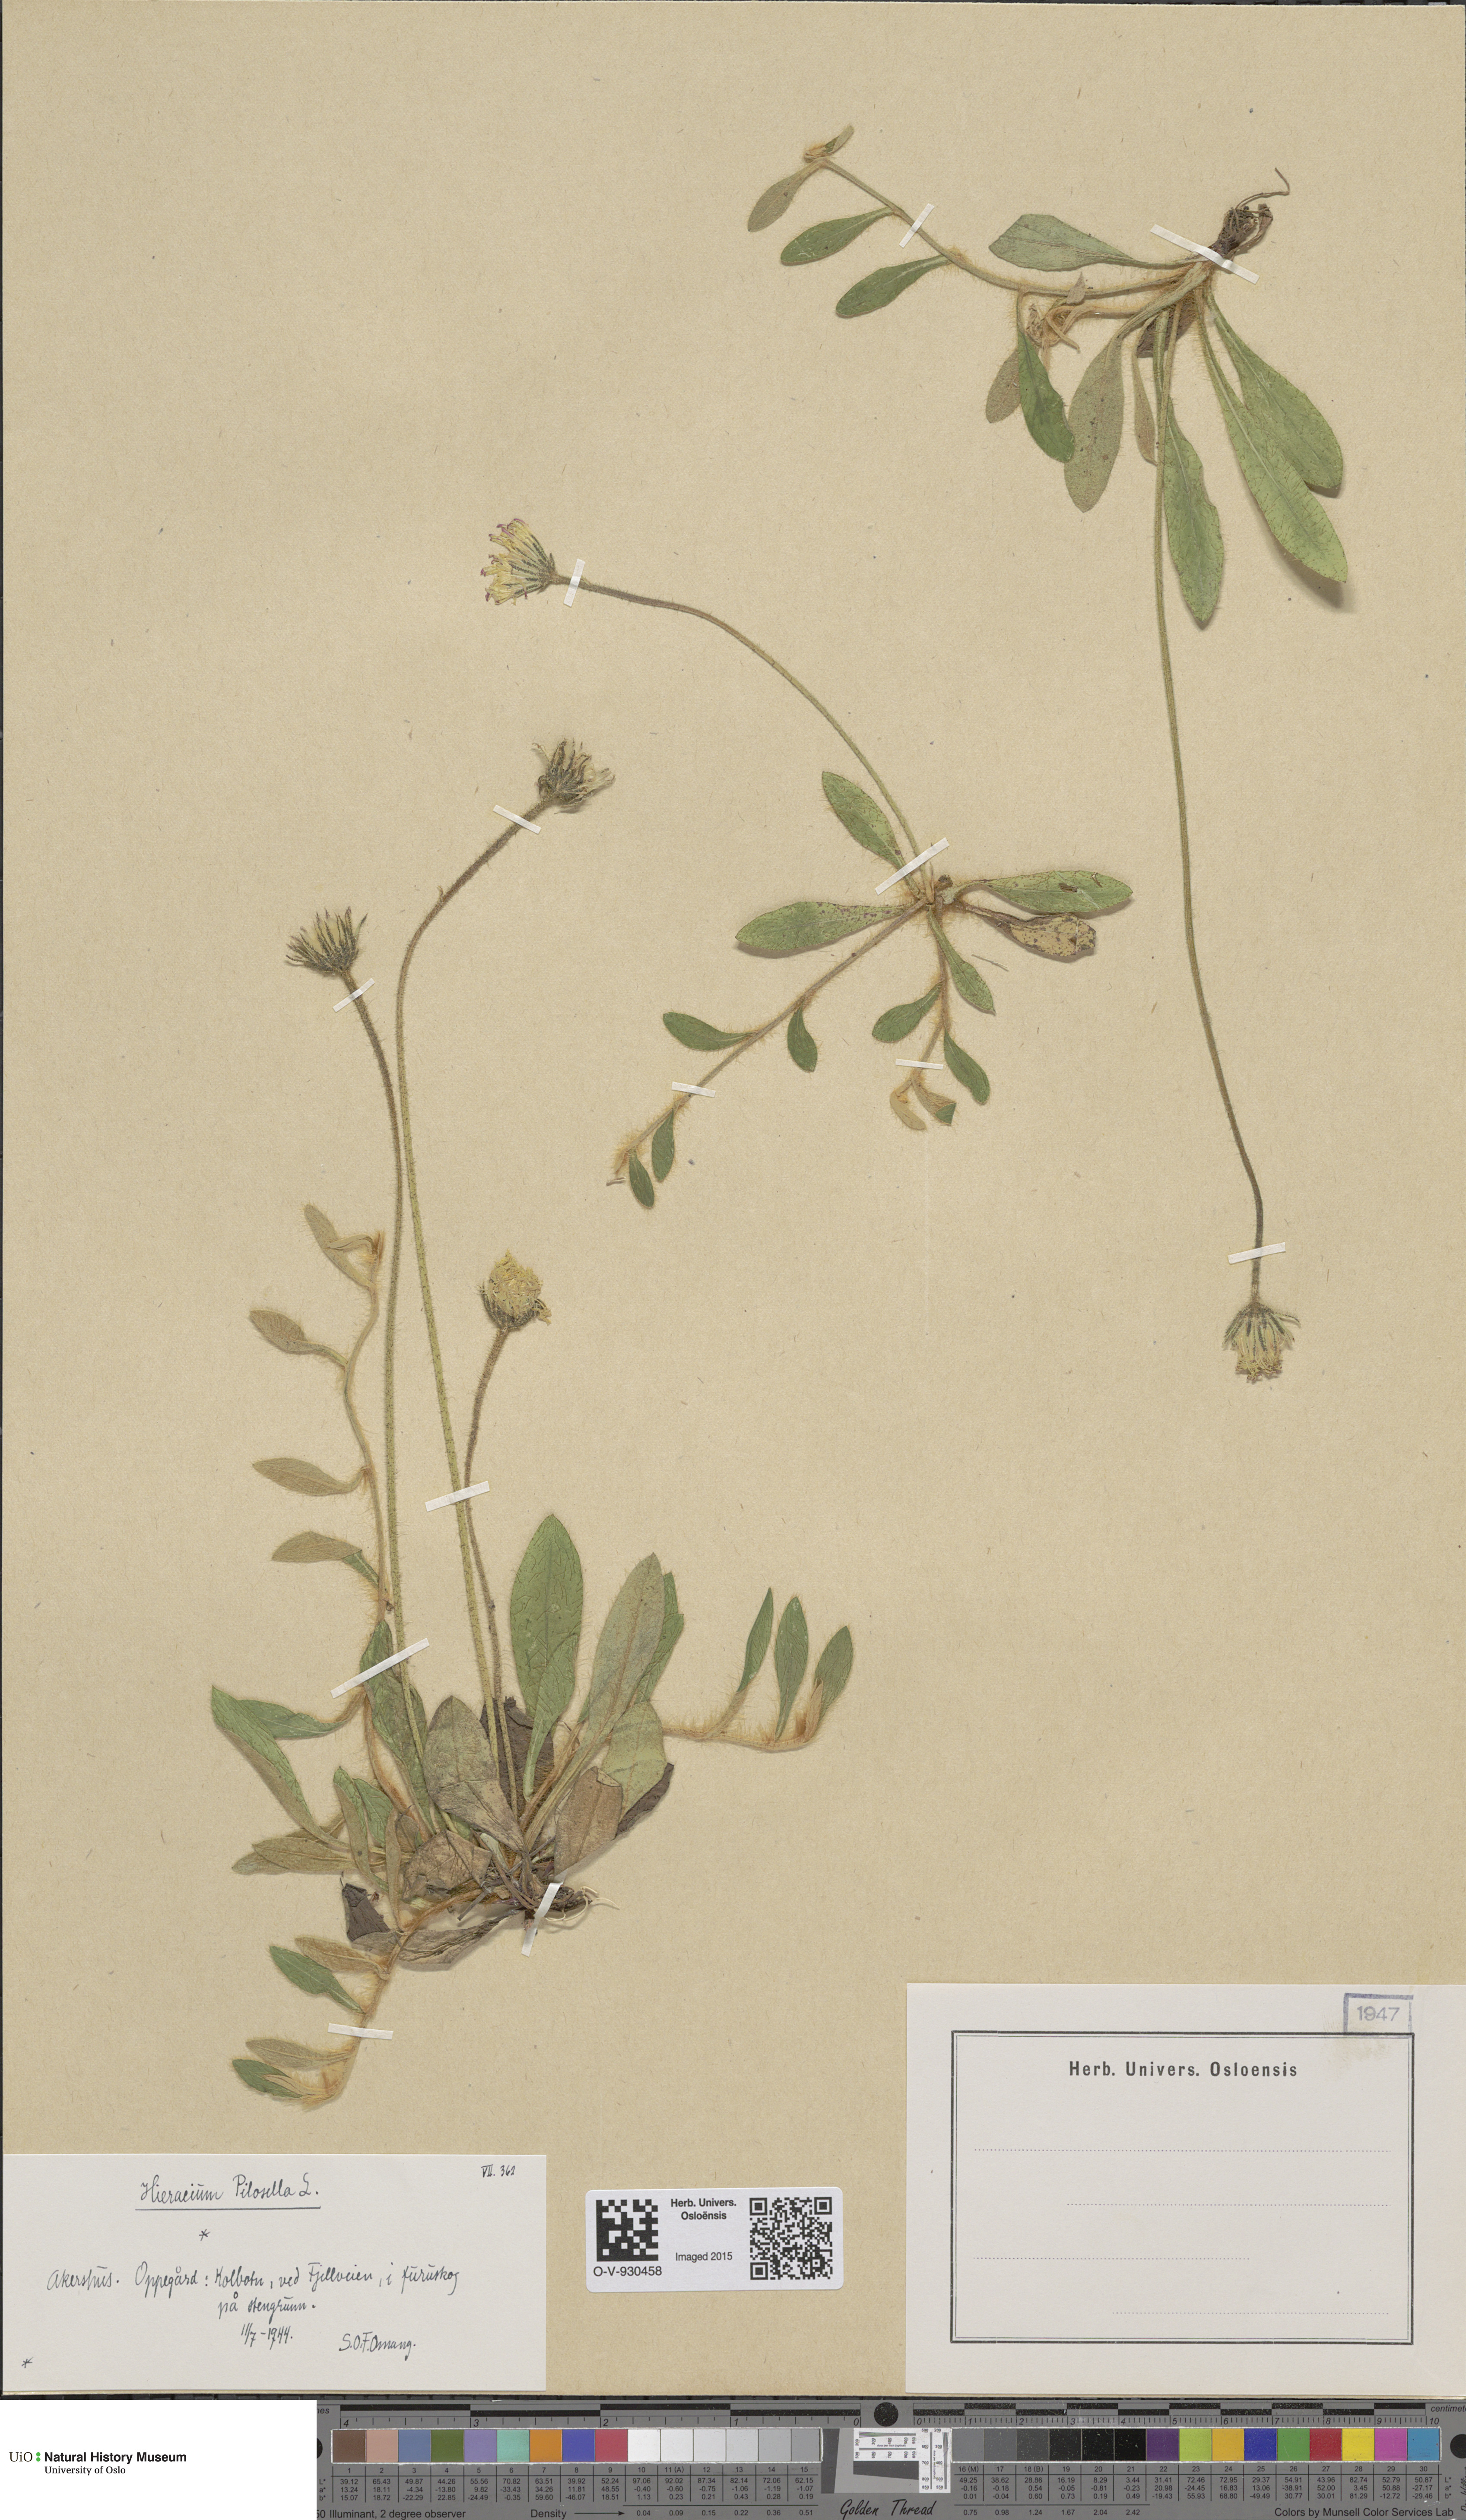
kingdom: Plantae
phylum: Tracheophyta
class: Magnoliopsida
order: Asterales
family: Asteraceae
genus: Pilosella
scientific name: Pilosella officinarum
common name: Mouse-ear hawkweed
